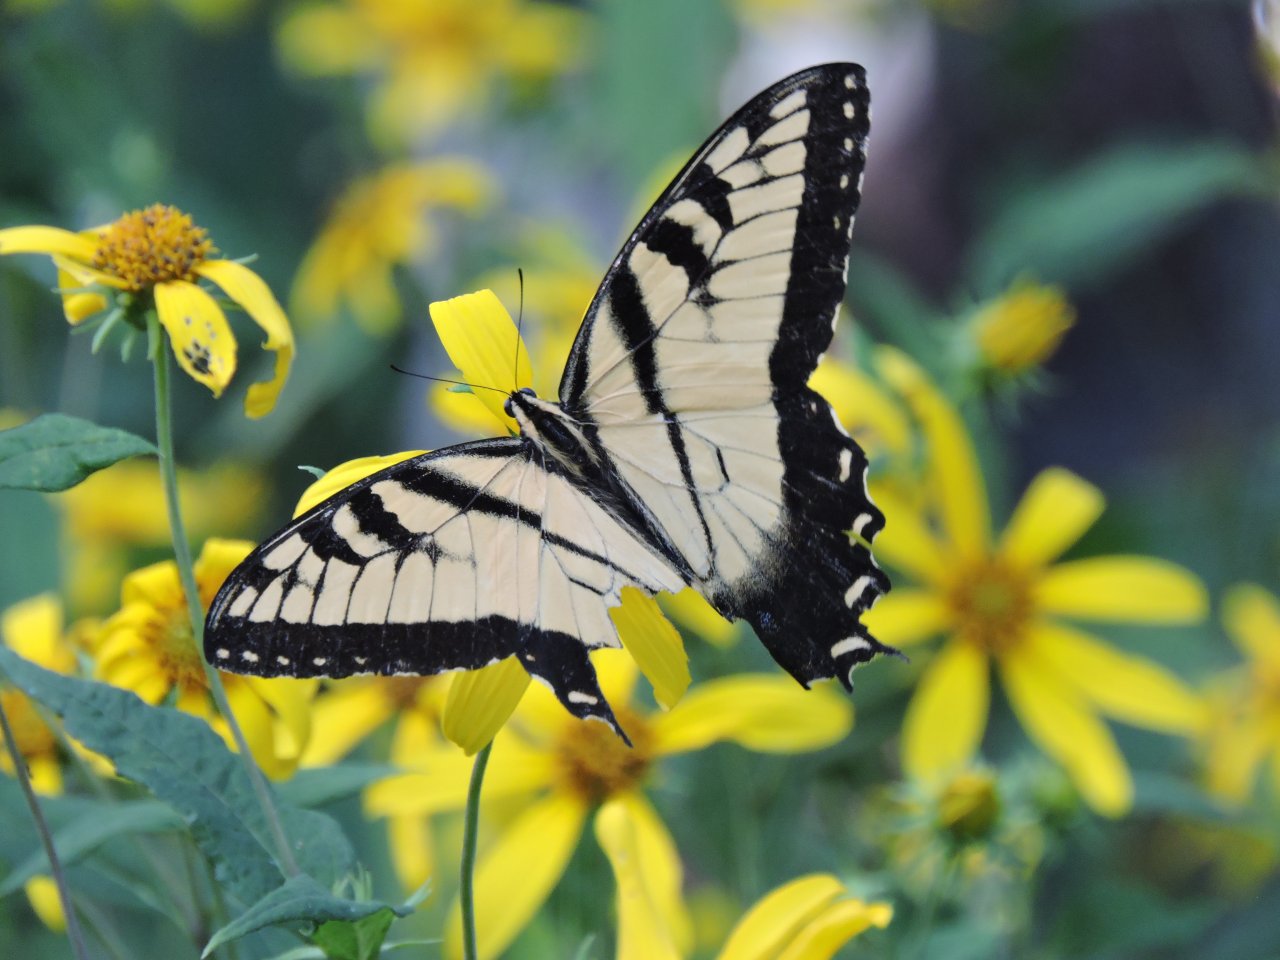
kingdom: Animalia
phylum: Arthropoda
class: Insecta
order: Lepidoptera
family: Papilionidae
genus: Pterourus
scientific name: Pterourus glaucus
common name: Eastern Tiger Swallowtail
